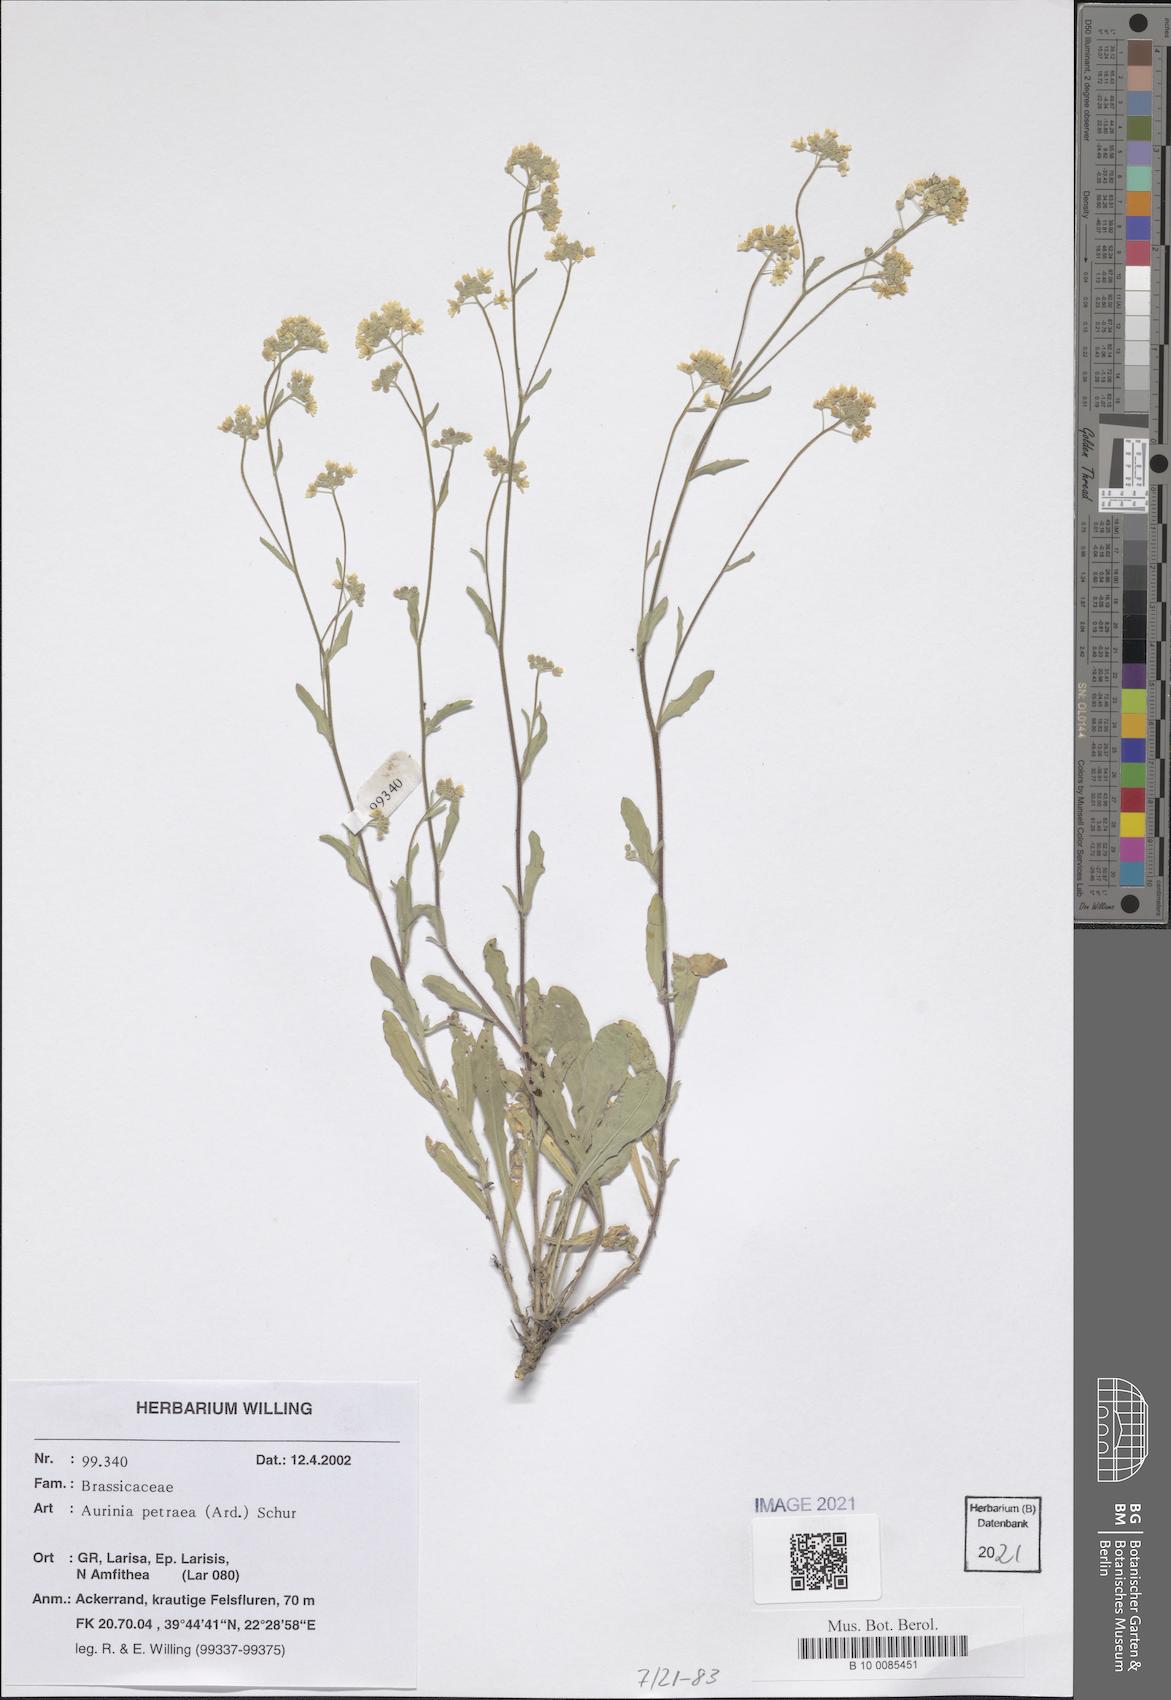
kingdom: Plantae
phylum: Tracheophyta
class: Magnoliopsida
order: Brassicales
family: Brassicaceae
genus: Aurinia
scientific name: Aurinia petraea
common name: Goldentuft
